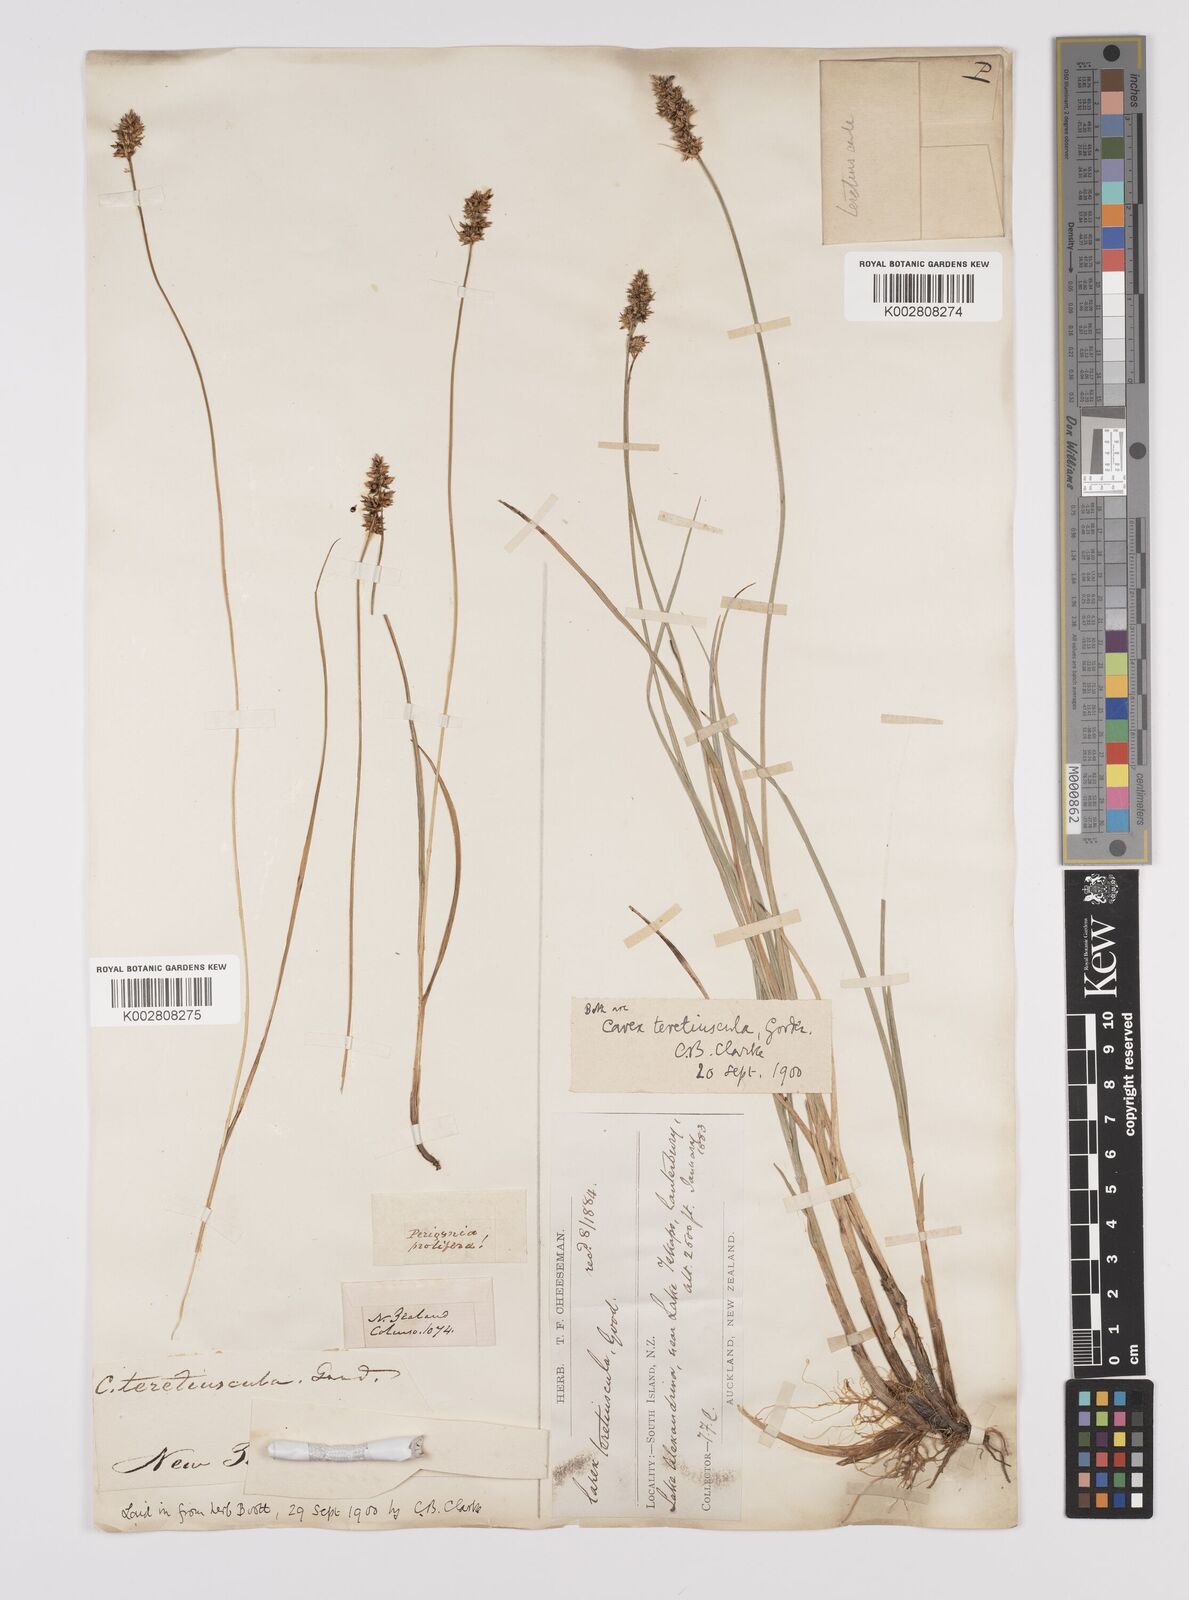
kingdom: Plantae
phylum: Tracheophyta
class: Liliopsida
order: Poales
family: Cyperaceae
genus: Carex
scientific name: Carex diandra
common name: Lesser tussock-sedge
